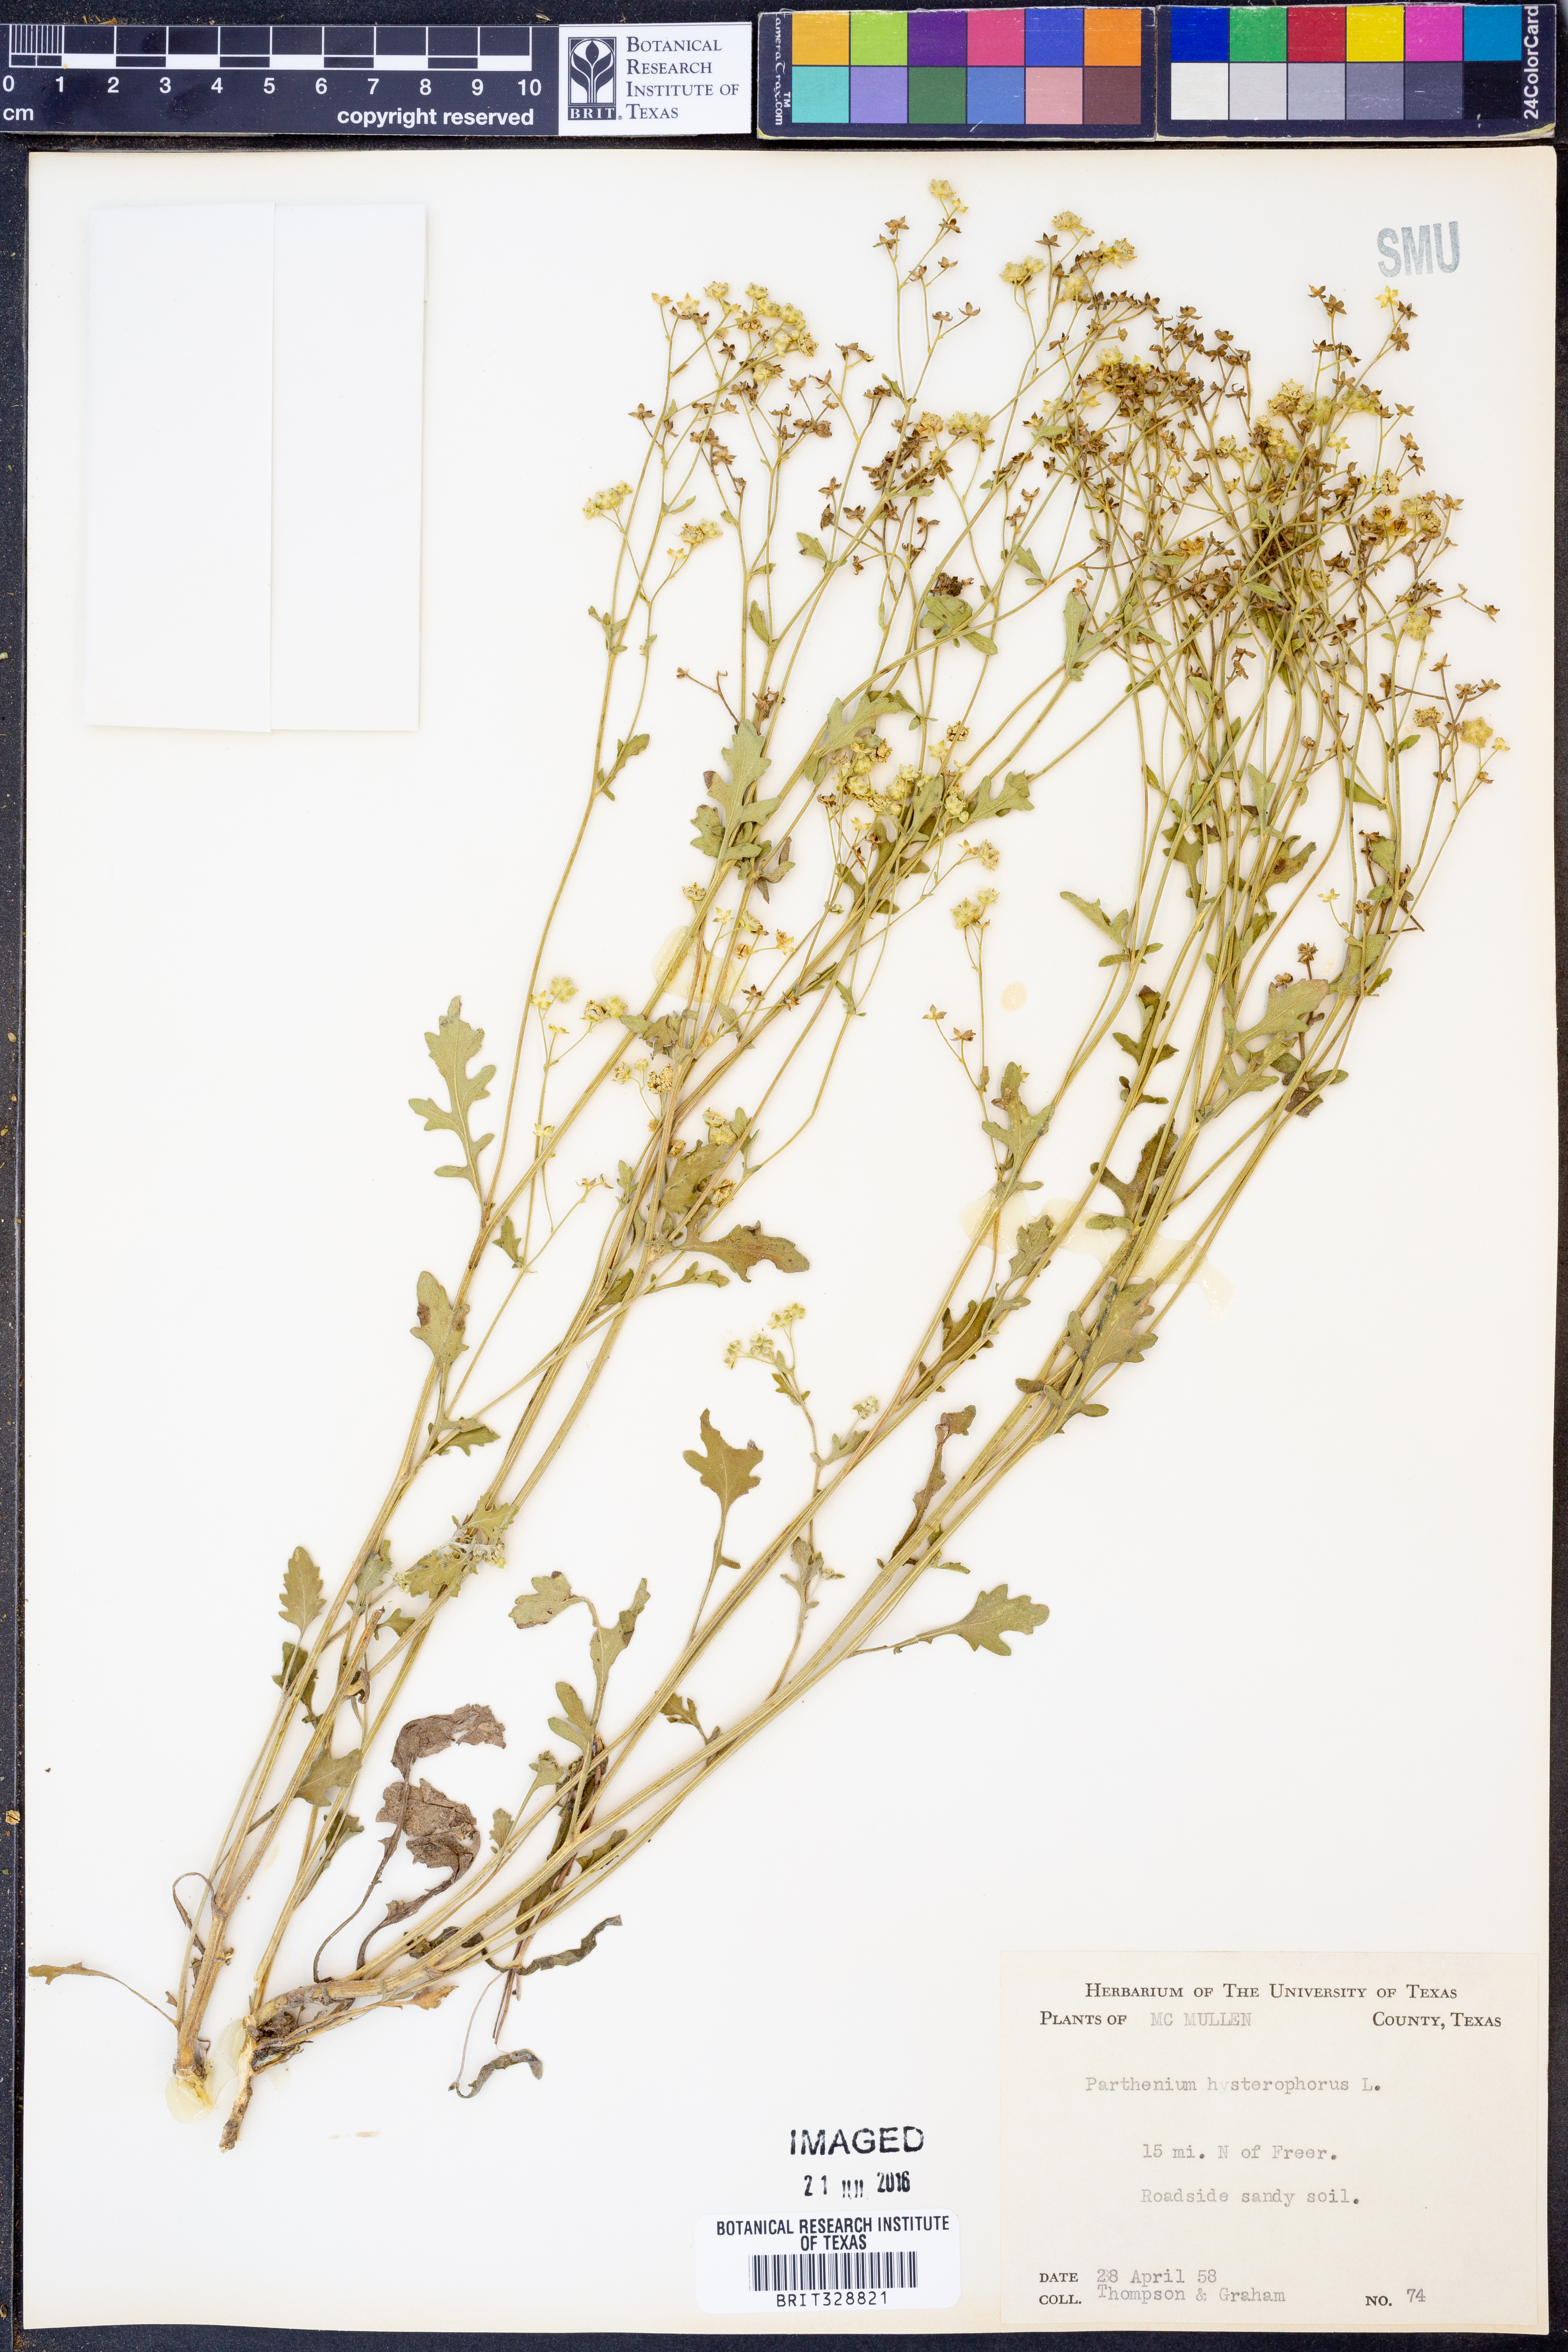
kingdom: Plantae
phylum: Tracheophyta
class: Magnoliopsida
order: Asterales
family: Asteraceae
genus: Parthenium
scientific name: Parthenium hysterophorus
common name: Santa maria feverfew
